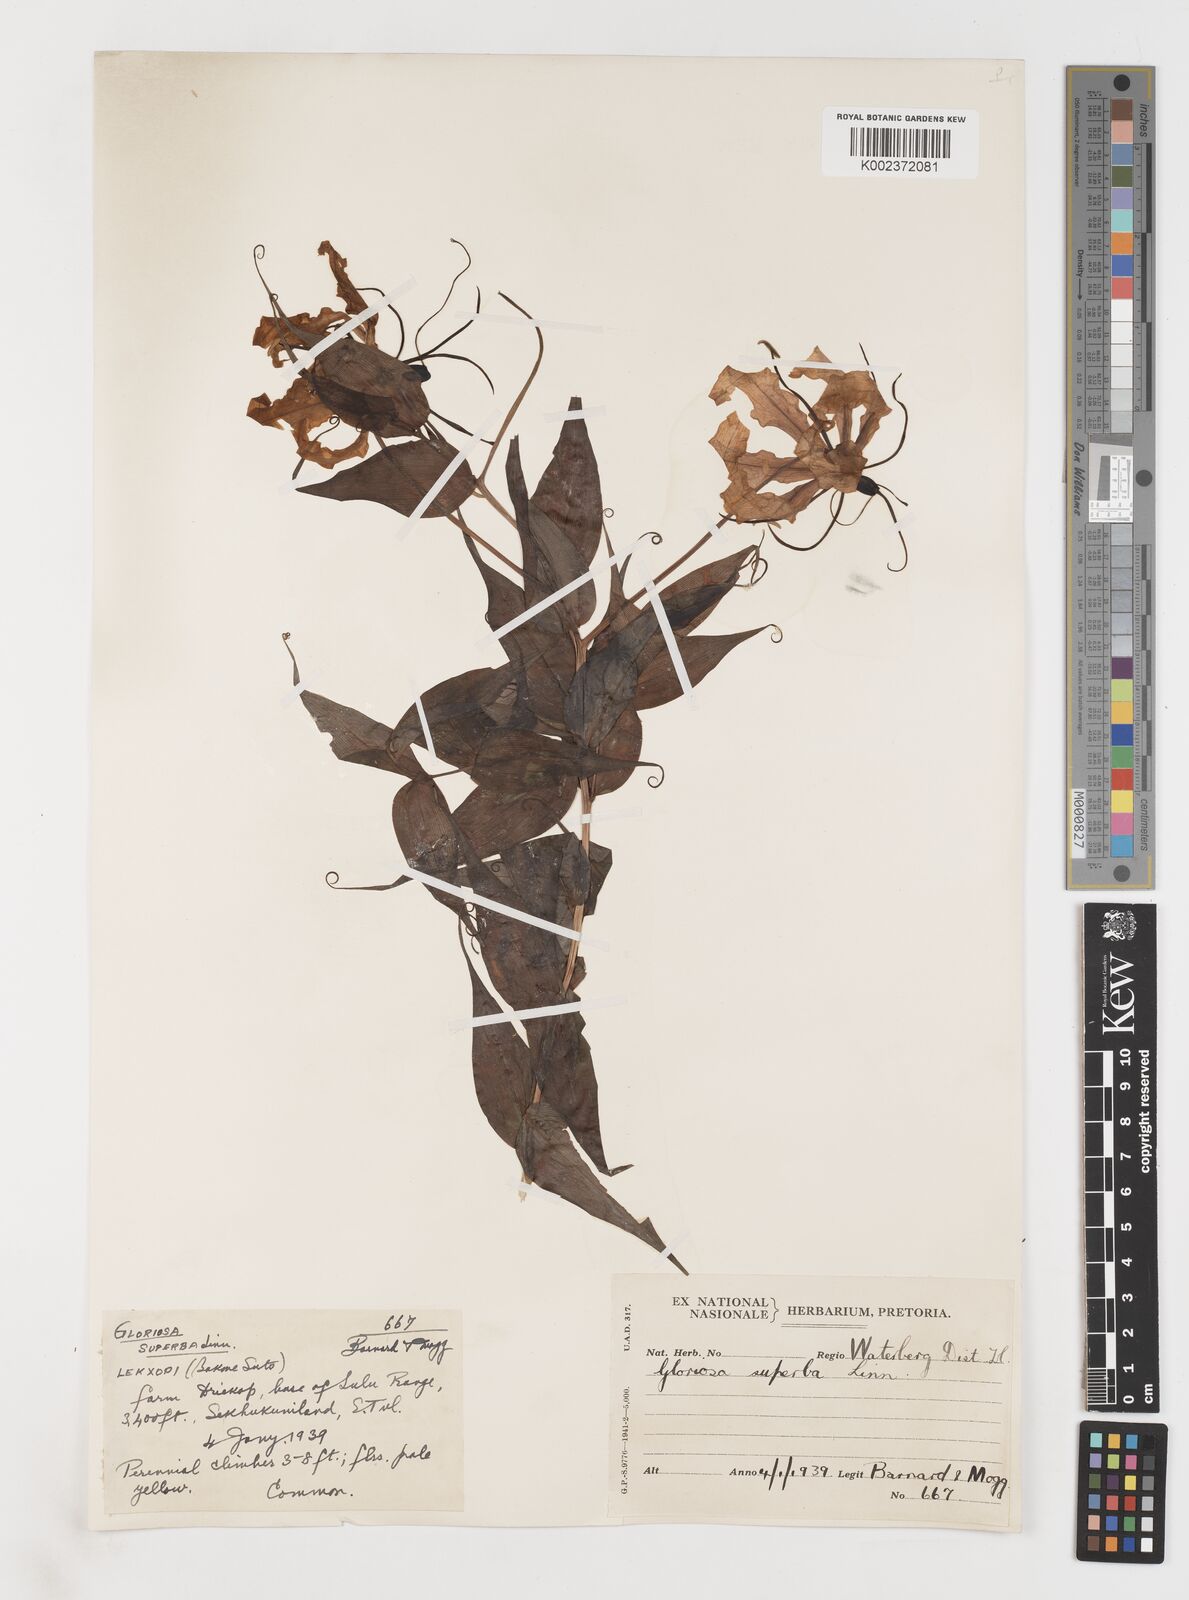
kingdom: Plantae
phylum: Tracheophyta
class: Liliopsida
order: Liliales
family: Colchicaceae
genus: Gloriosa
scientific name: Gloriosa simplex
